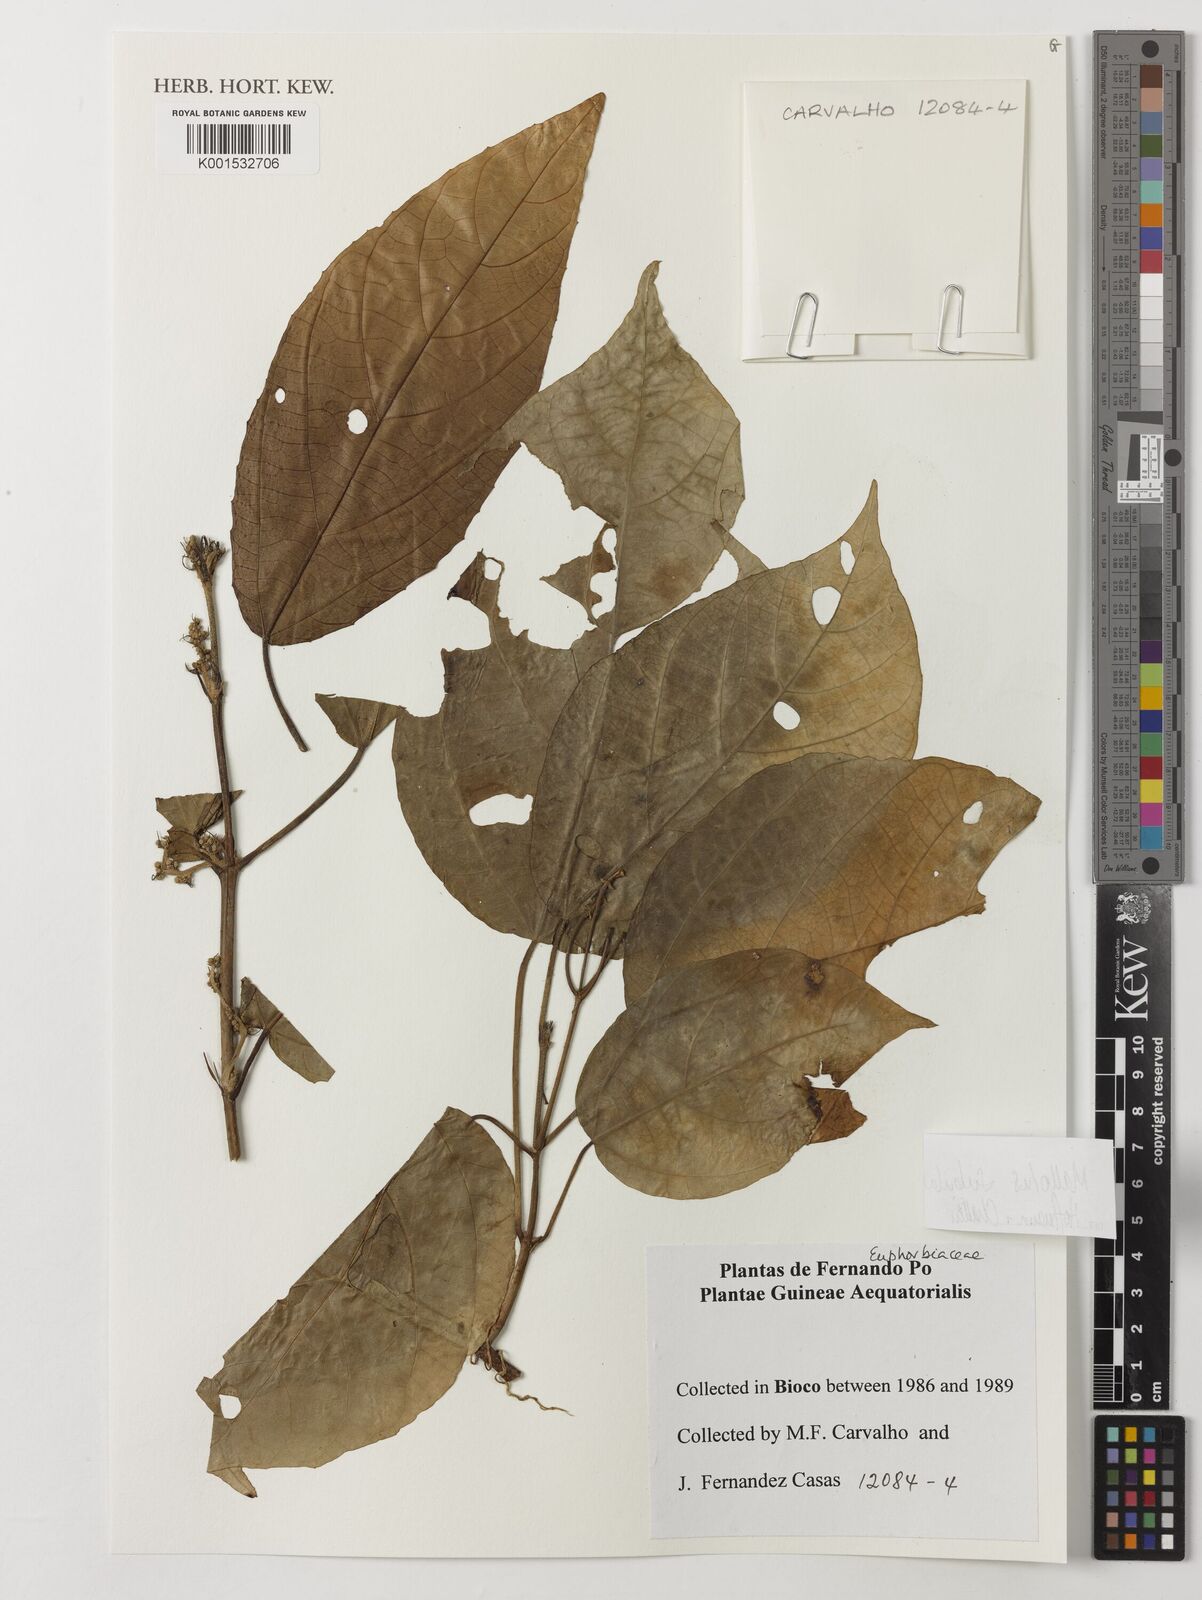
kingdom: Plantae
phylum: Tracheophyta
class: Magnoliopsida
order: Malpighiales
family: Euphorbiaceae
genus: Mallotus
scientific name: Mallotus subulatus
